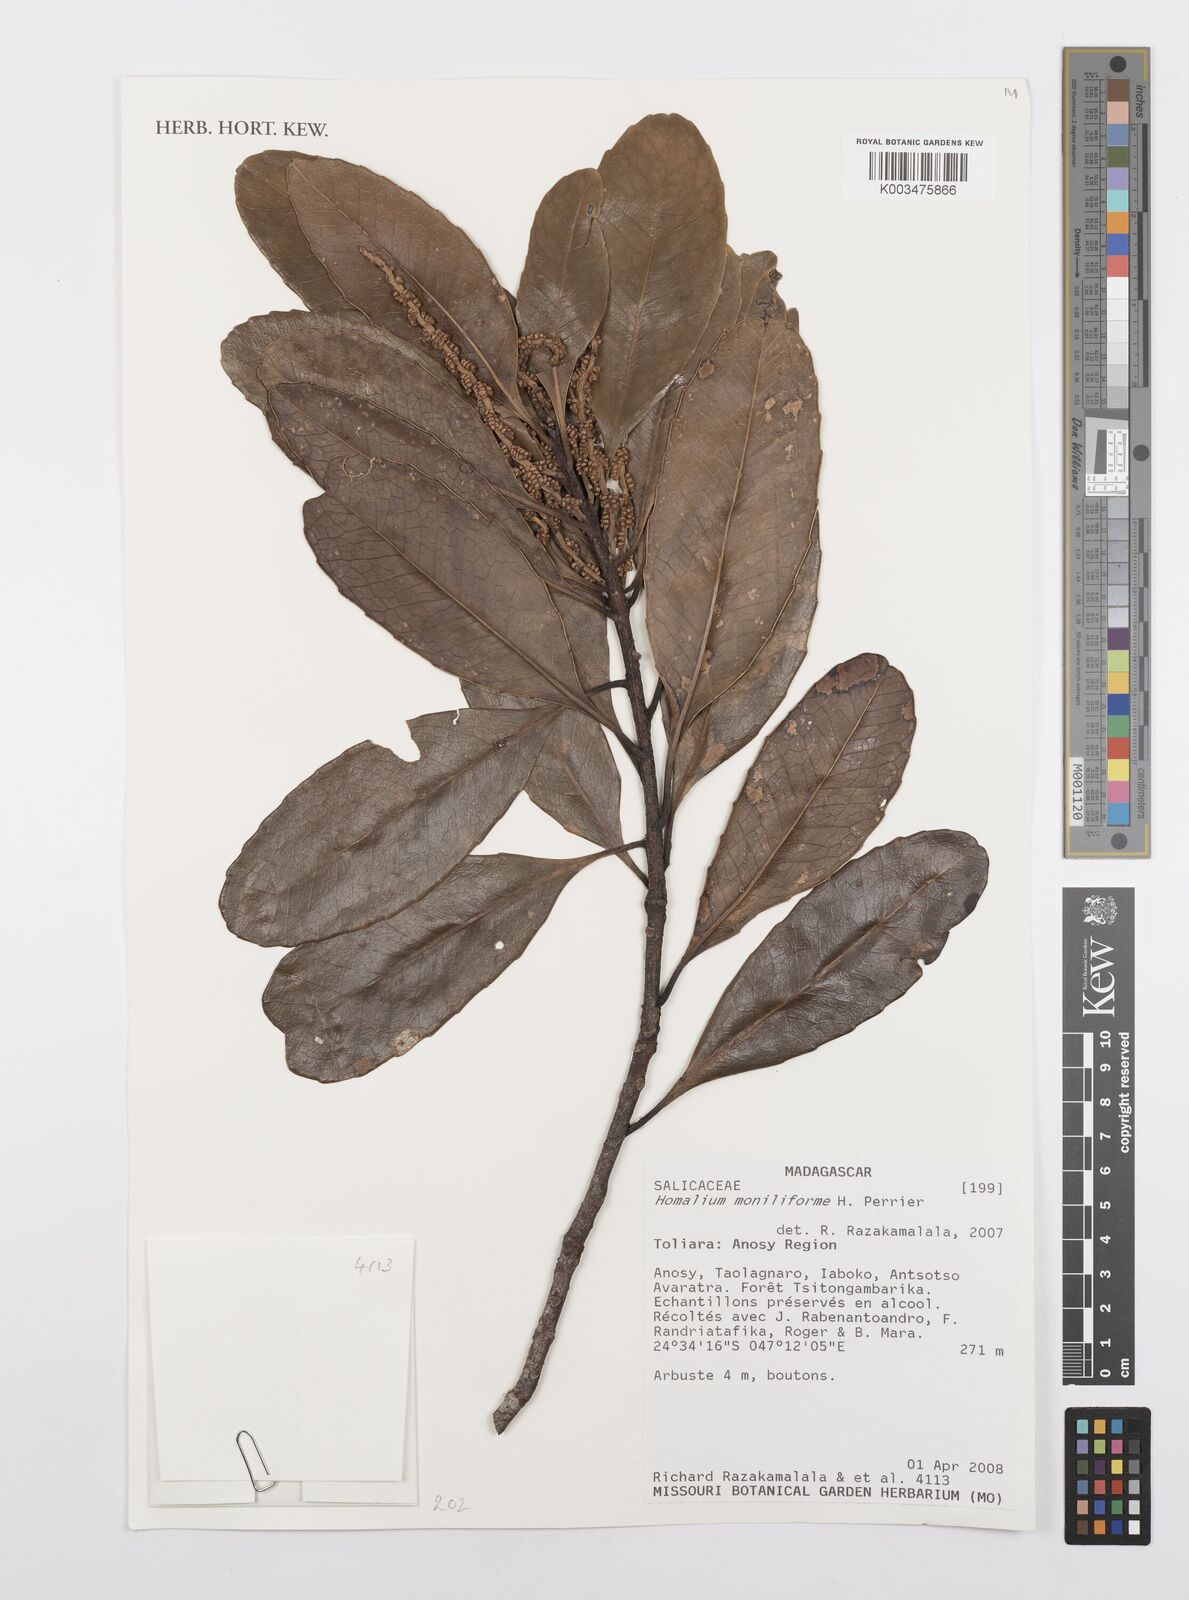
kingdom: Plantae
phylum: Tracheophyta
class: Magnoliopsida
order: Malpighiales
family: Salicaceae
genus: Homalium
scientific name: Homalium moniliforme
